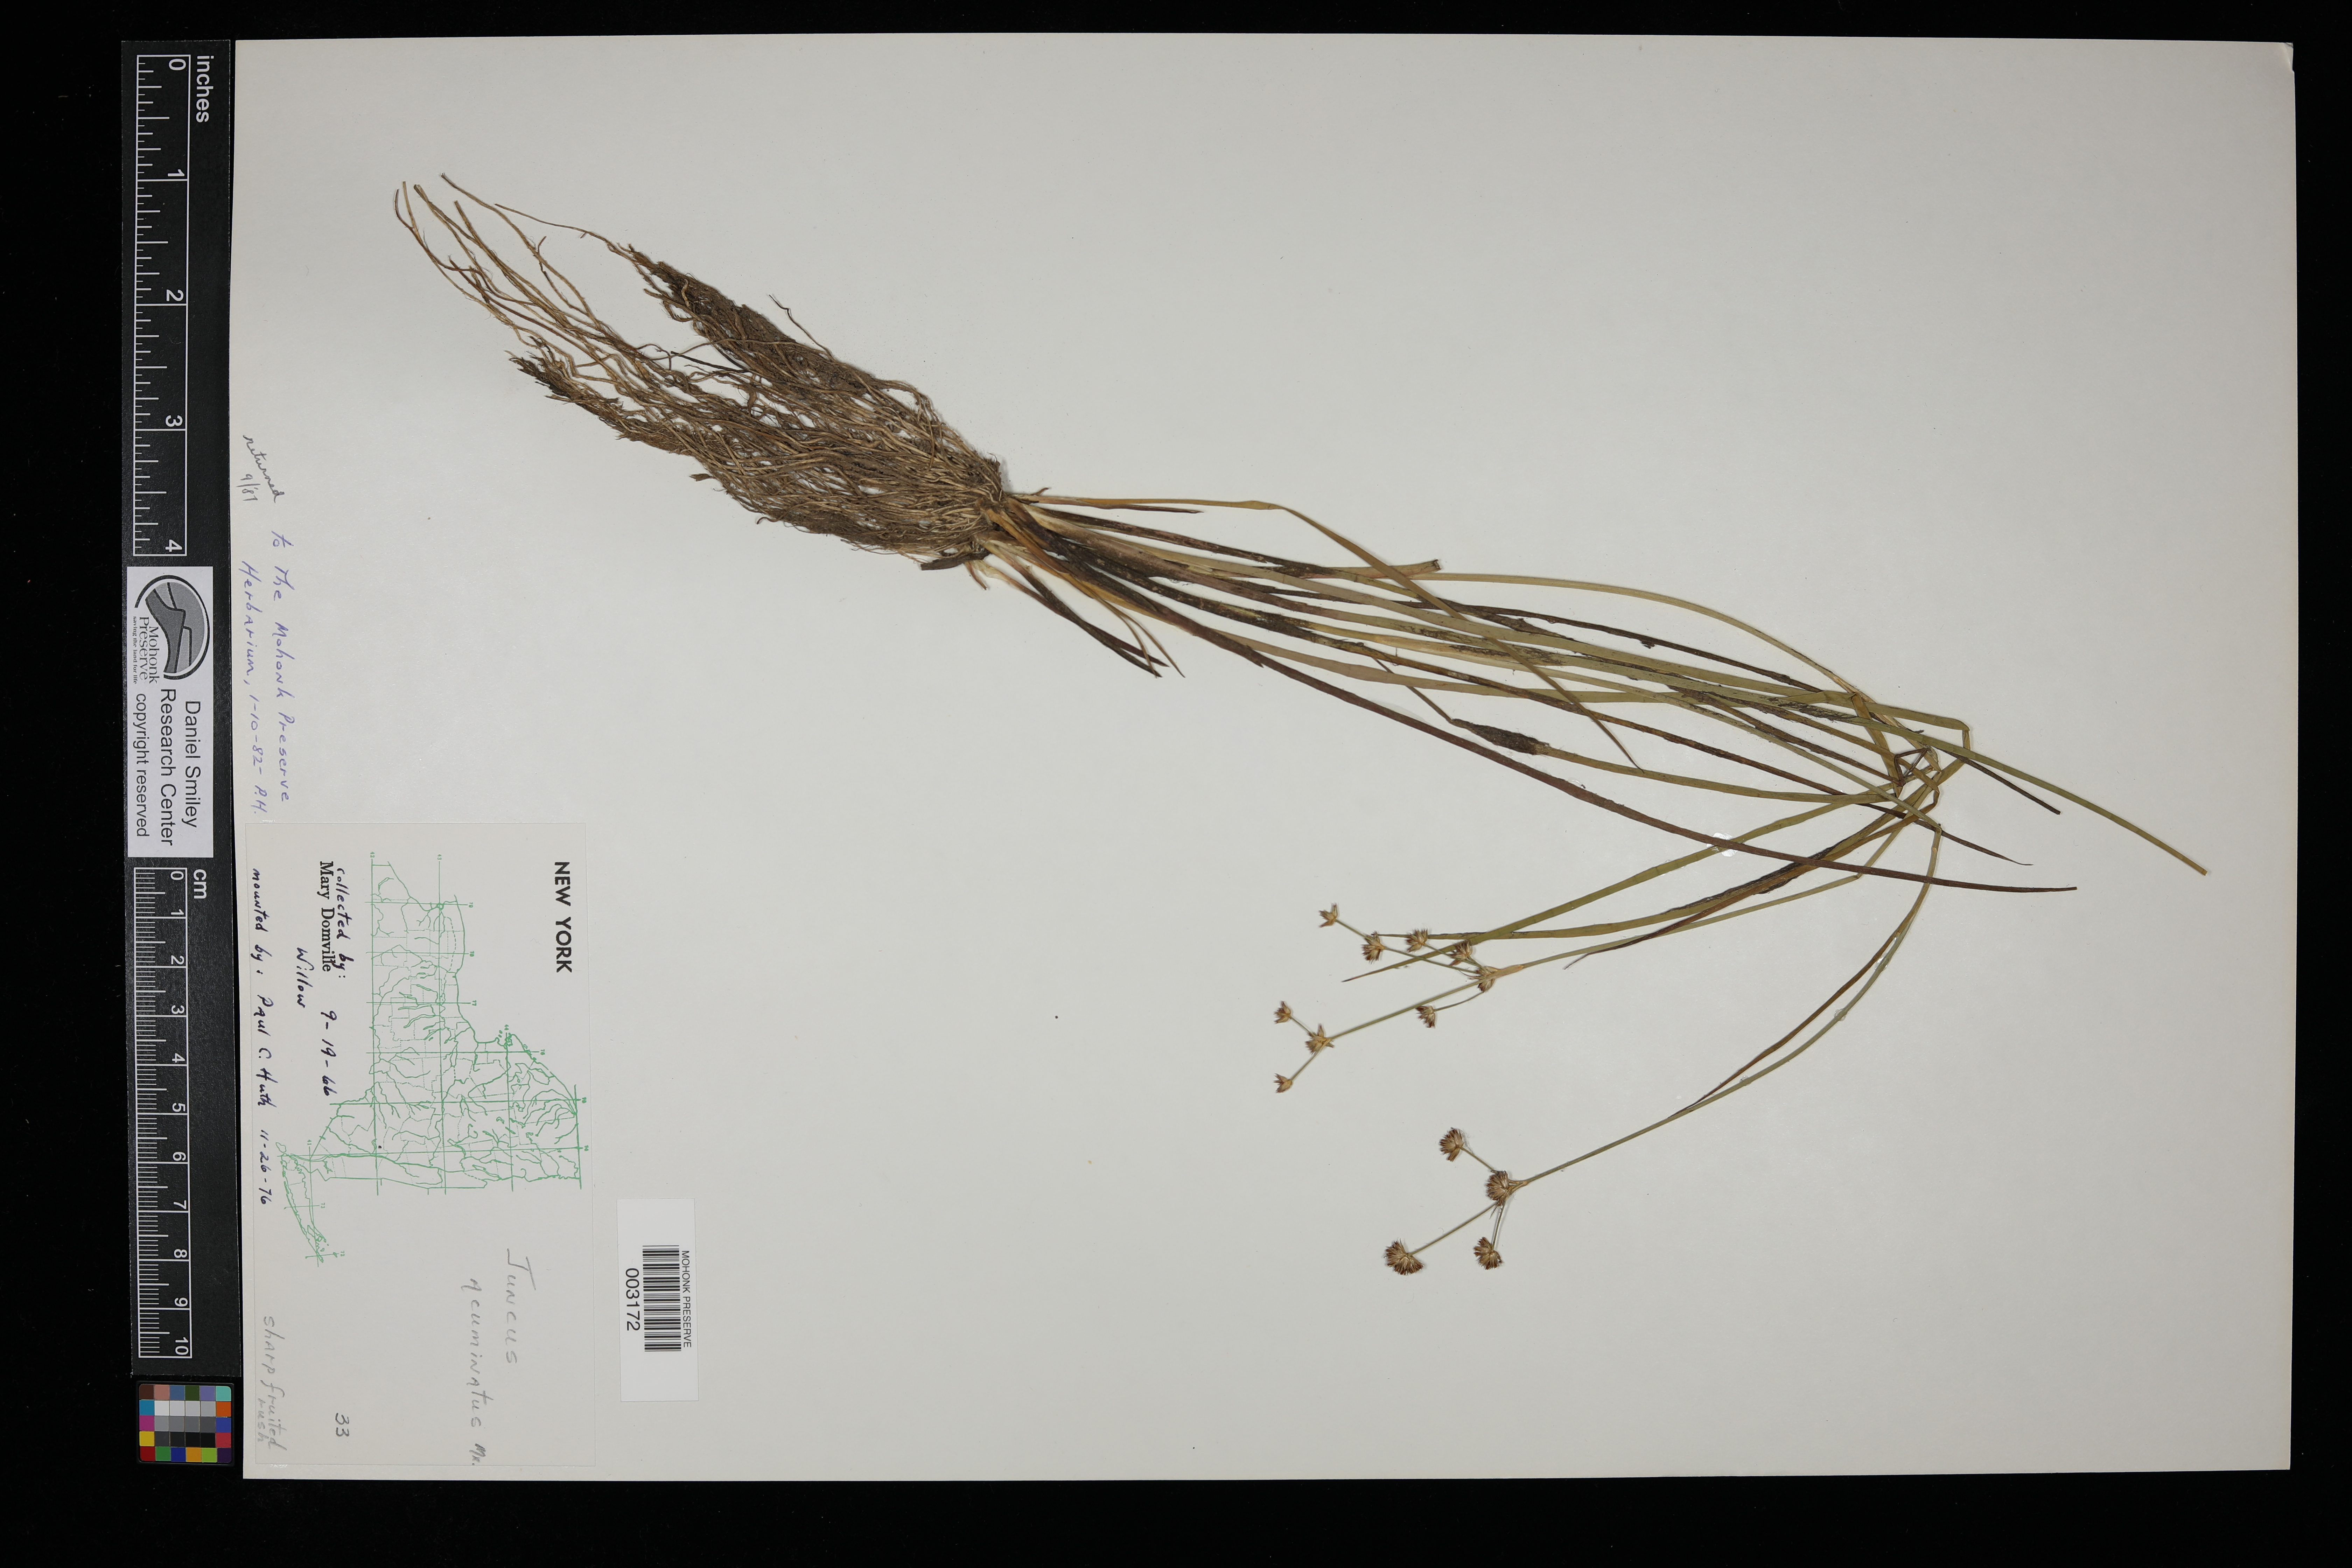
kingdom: Plantae
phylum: Tracheophyta
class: Liliopsida
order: Poales
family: Juncaceae
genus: Juncus
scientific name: Juncus acuminatus
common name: Knotty-leaved rush
